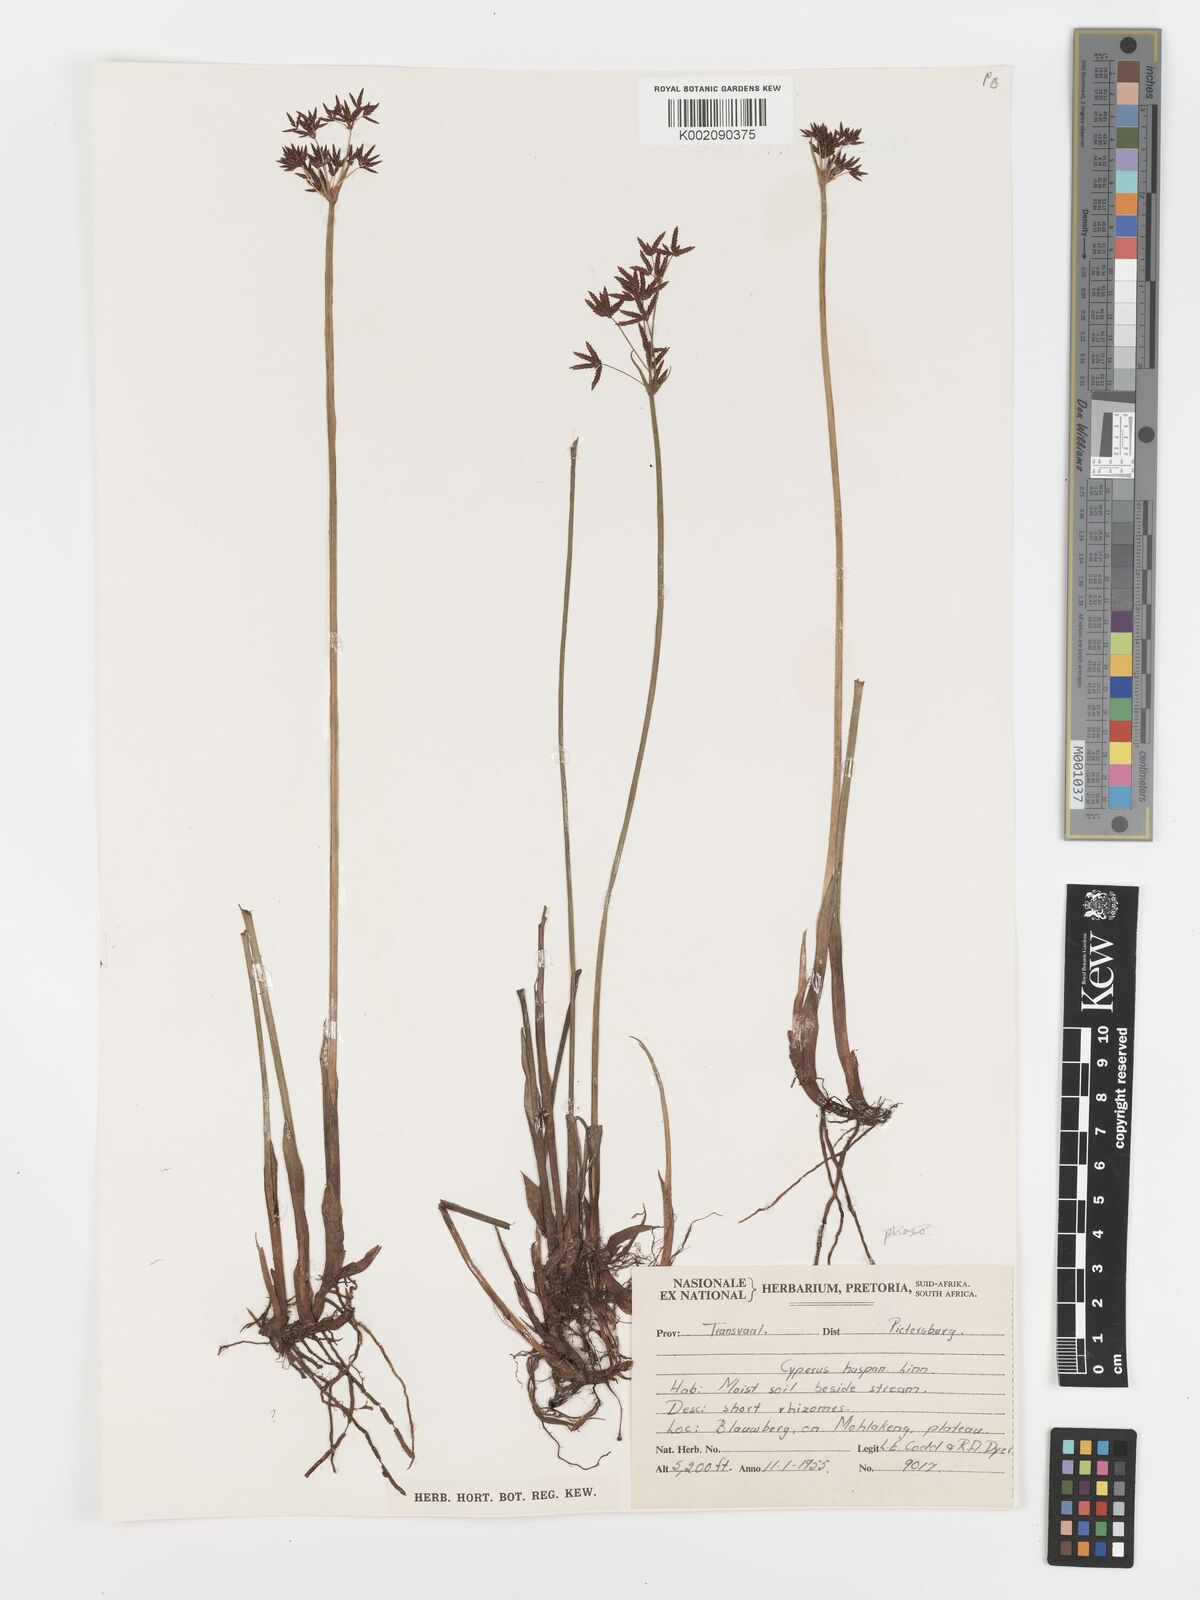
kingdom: Plantae
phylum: Tracheophyta
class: Liliopsida
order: Poales
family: Cyperaceae
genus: Cyperus
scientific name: Cyperus haspan
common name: Haspan flatsedge
